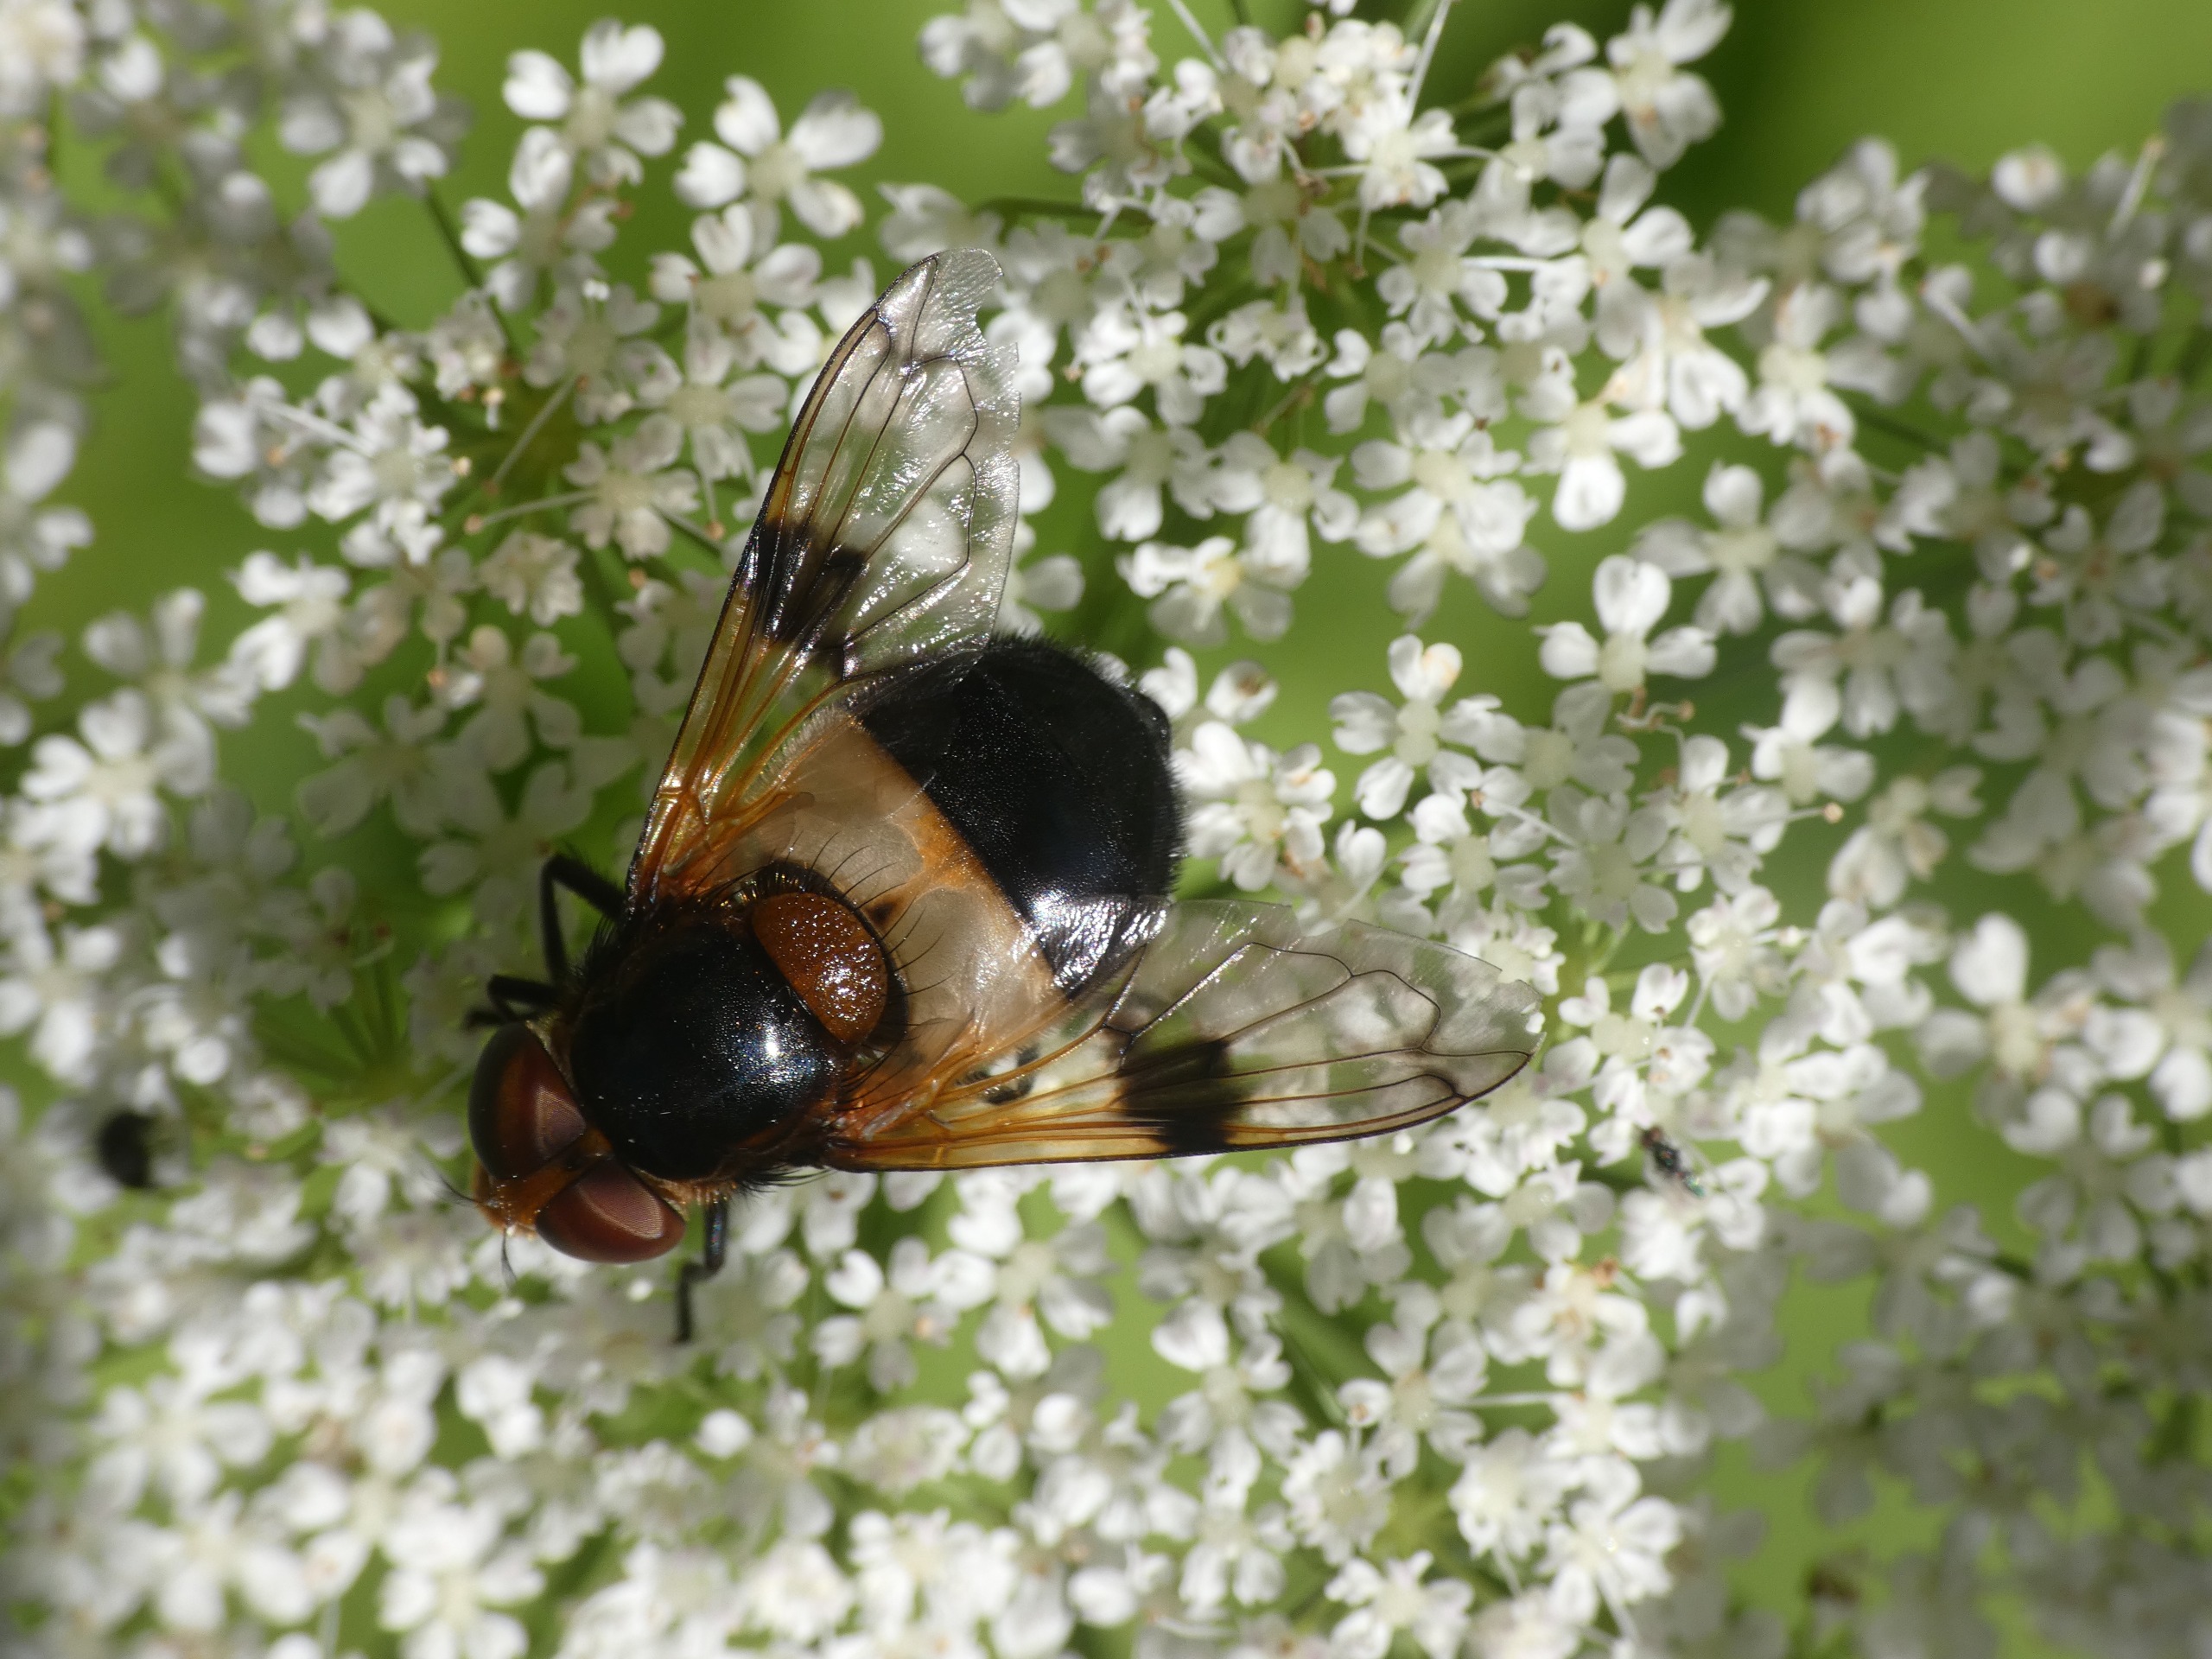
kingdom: Animalia
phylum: Arthropoda
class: Insecta
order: Diptera
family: Syrphidae
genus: Volucella
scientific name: Volucella pellucens
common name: Hvidbåndet humlesvirreflue
